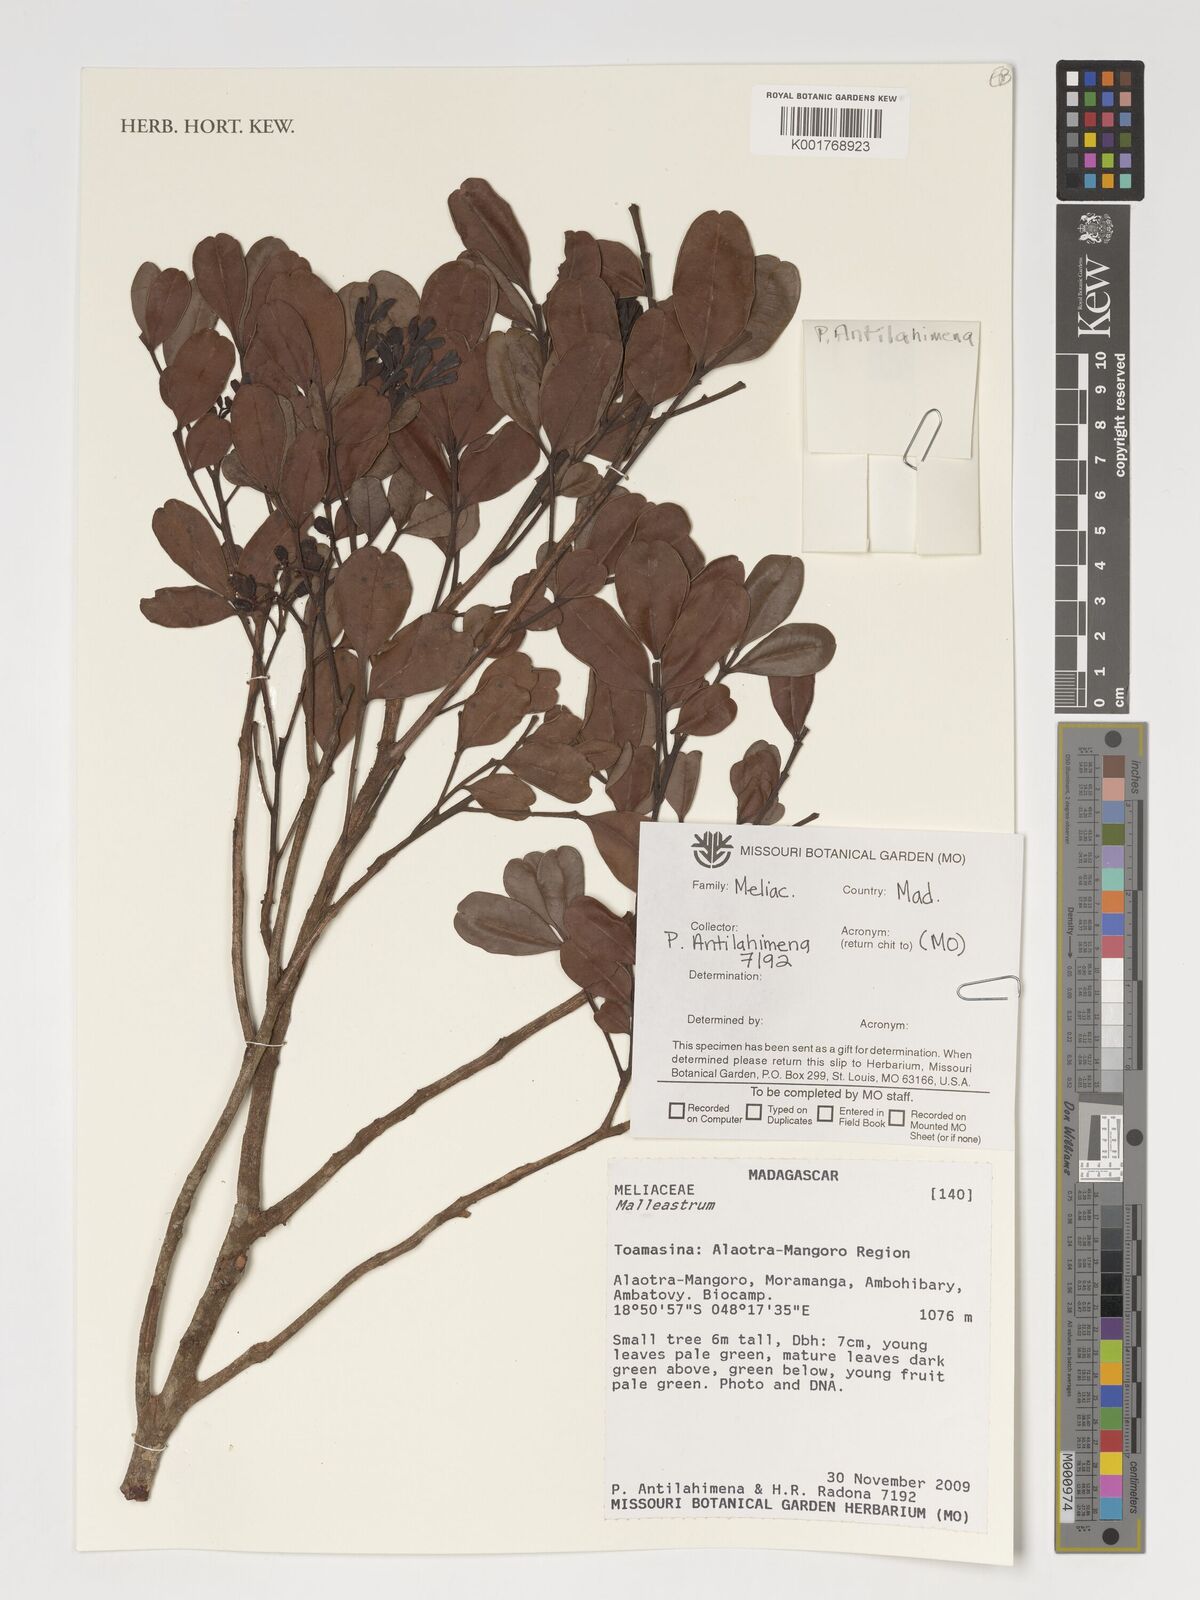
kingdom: Plantae
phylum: Tracheophyta
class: Magnoliopsida
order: Sapindales
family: Meliaceae
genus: Malleastrum
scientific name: Malleastrum
